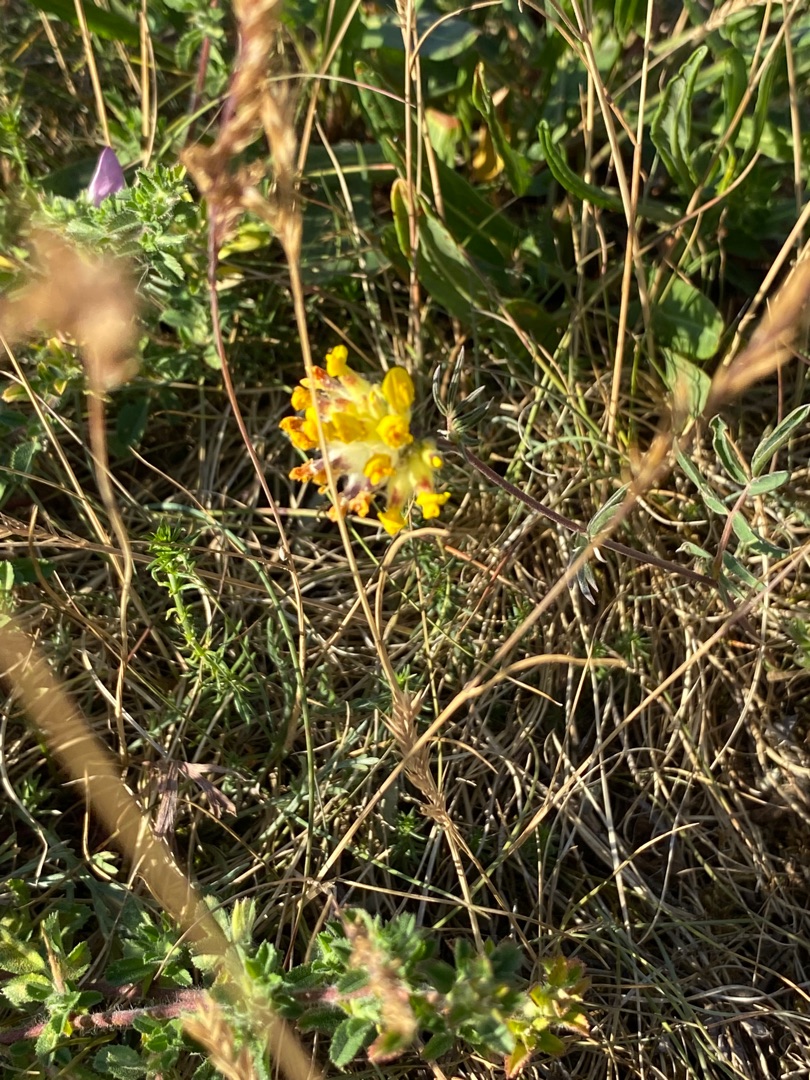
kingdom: Plantae
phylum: Tracheophyta
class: Magnoliopsida
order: Fabales
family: Fabaceae
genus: Anthyllis
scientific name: Anthyllis vulneraria
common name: Rundbælg
